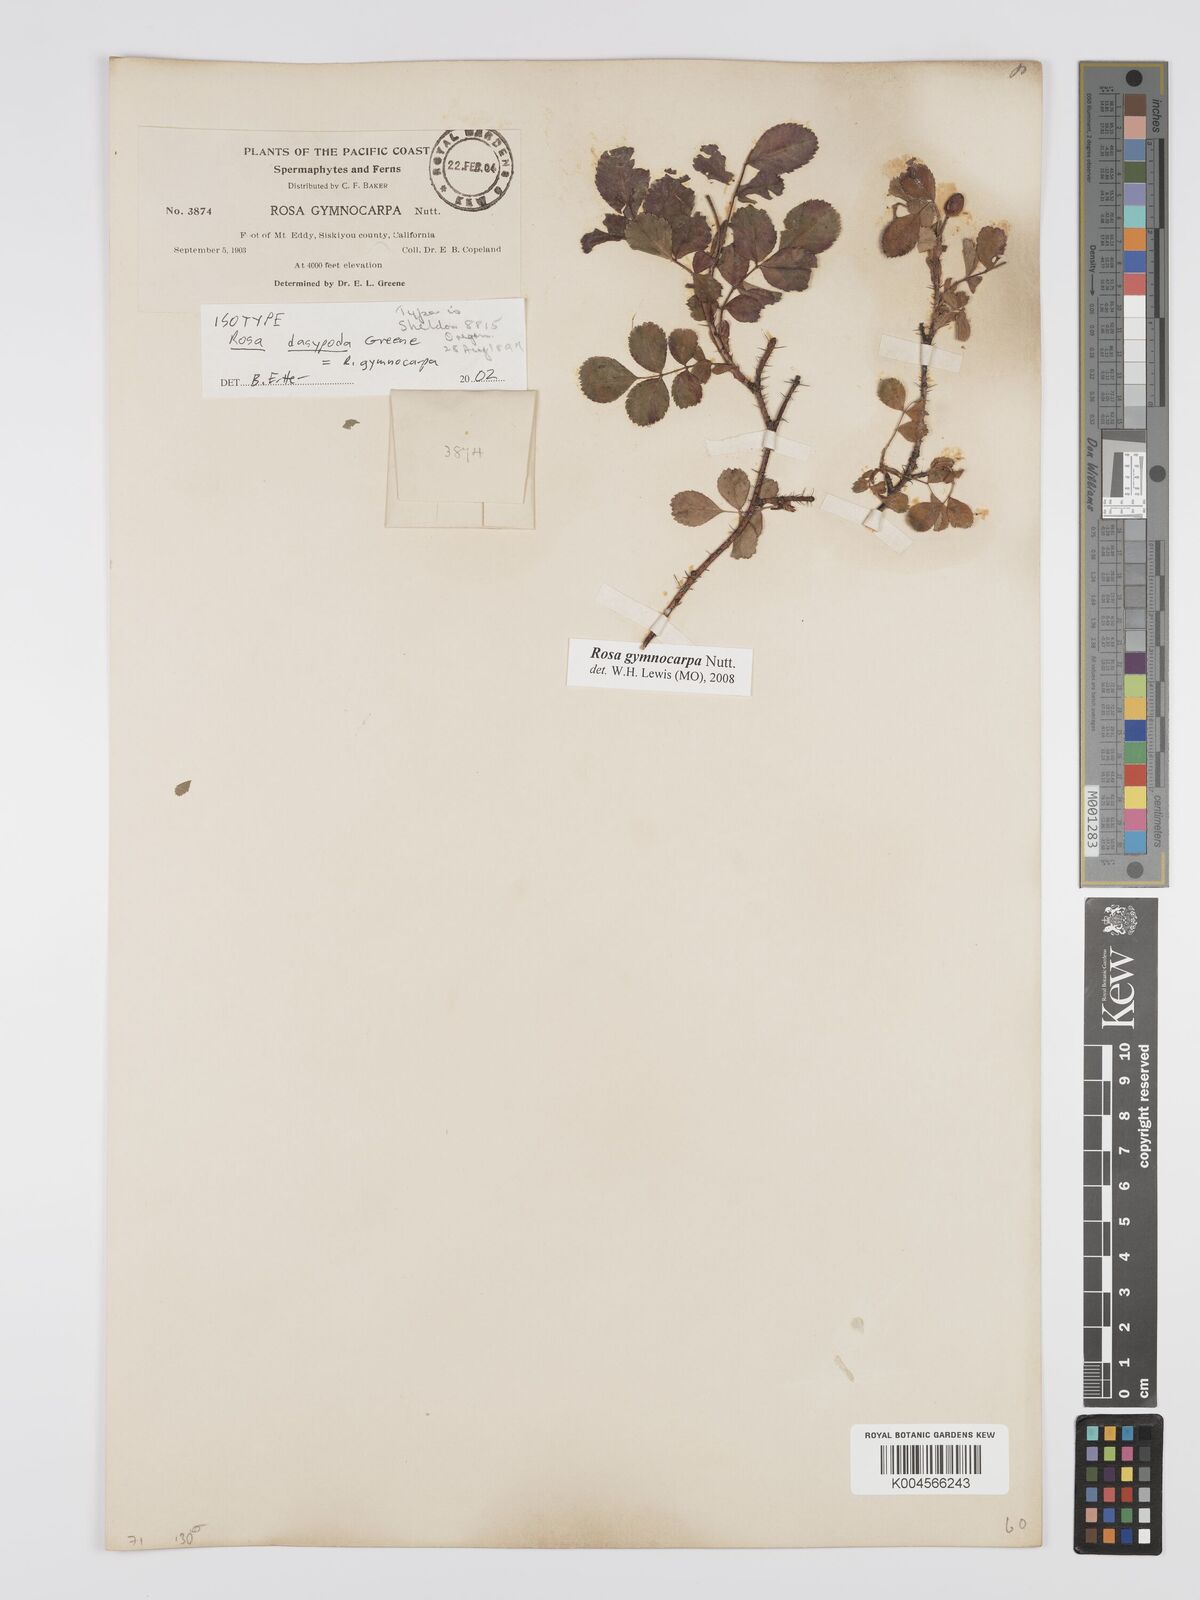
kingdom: Plantae
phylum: Tracheophyta
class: Magnoliopsida
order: Rosales
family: Rosaceae
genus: Rosa
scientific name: Rosa gymnocarpa
